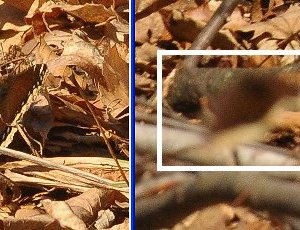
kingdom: Animalia
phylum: Arthropoda
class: Insecta
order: Lepidoptera
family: Nymphalidae
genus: Nymphalis
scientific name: Nymphalis antiopa
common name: Mourning Cloak
